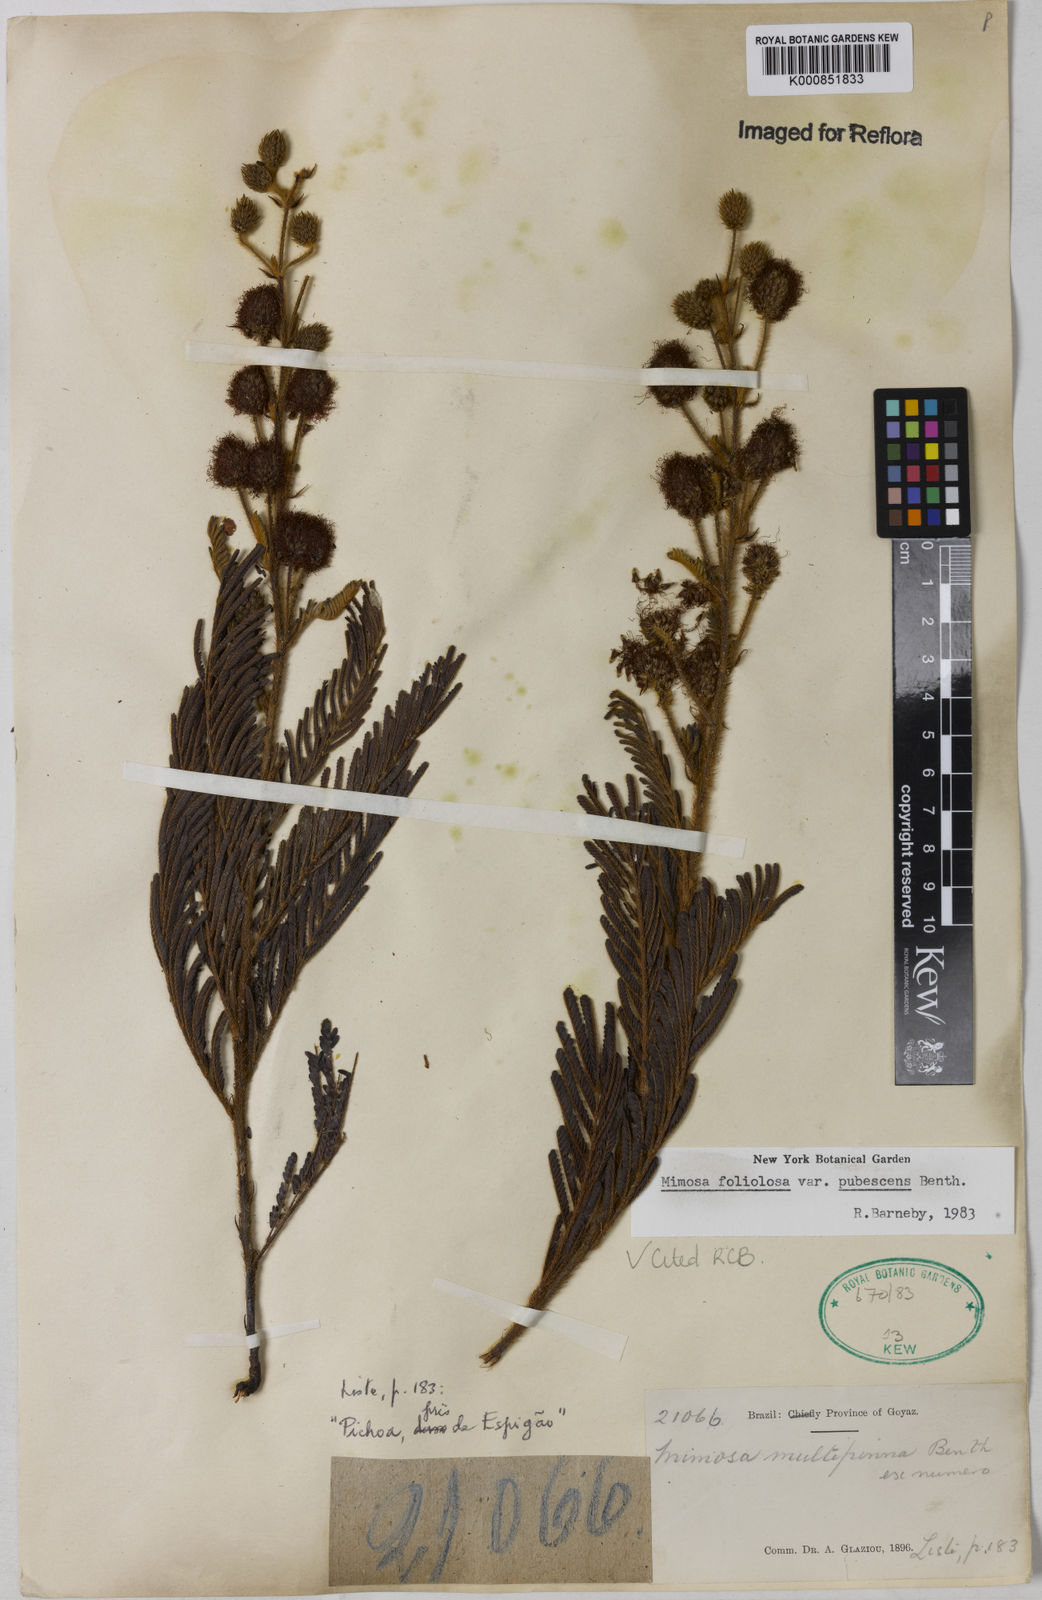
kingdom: Plantae
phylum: Tracheophyta
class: Magnoliopsida
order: Fabales
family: Fabaceae
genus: Mimosa
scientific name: Mimosa foliolosa
